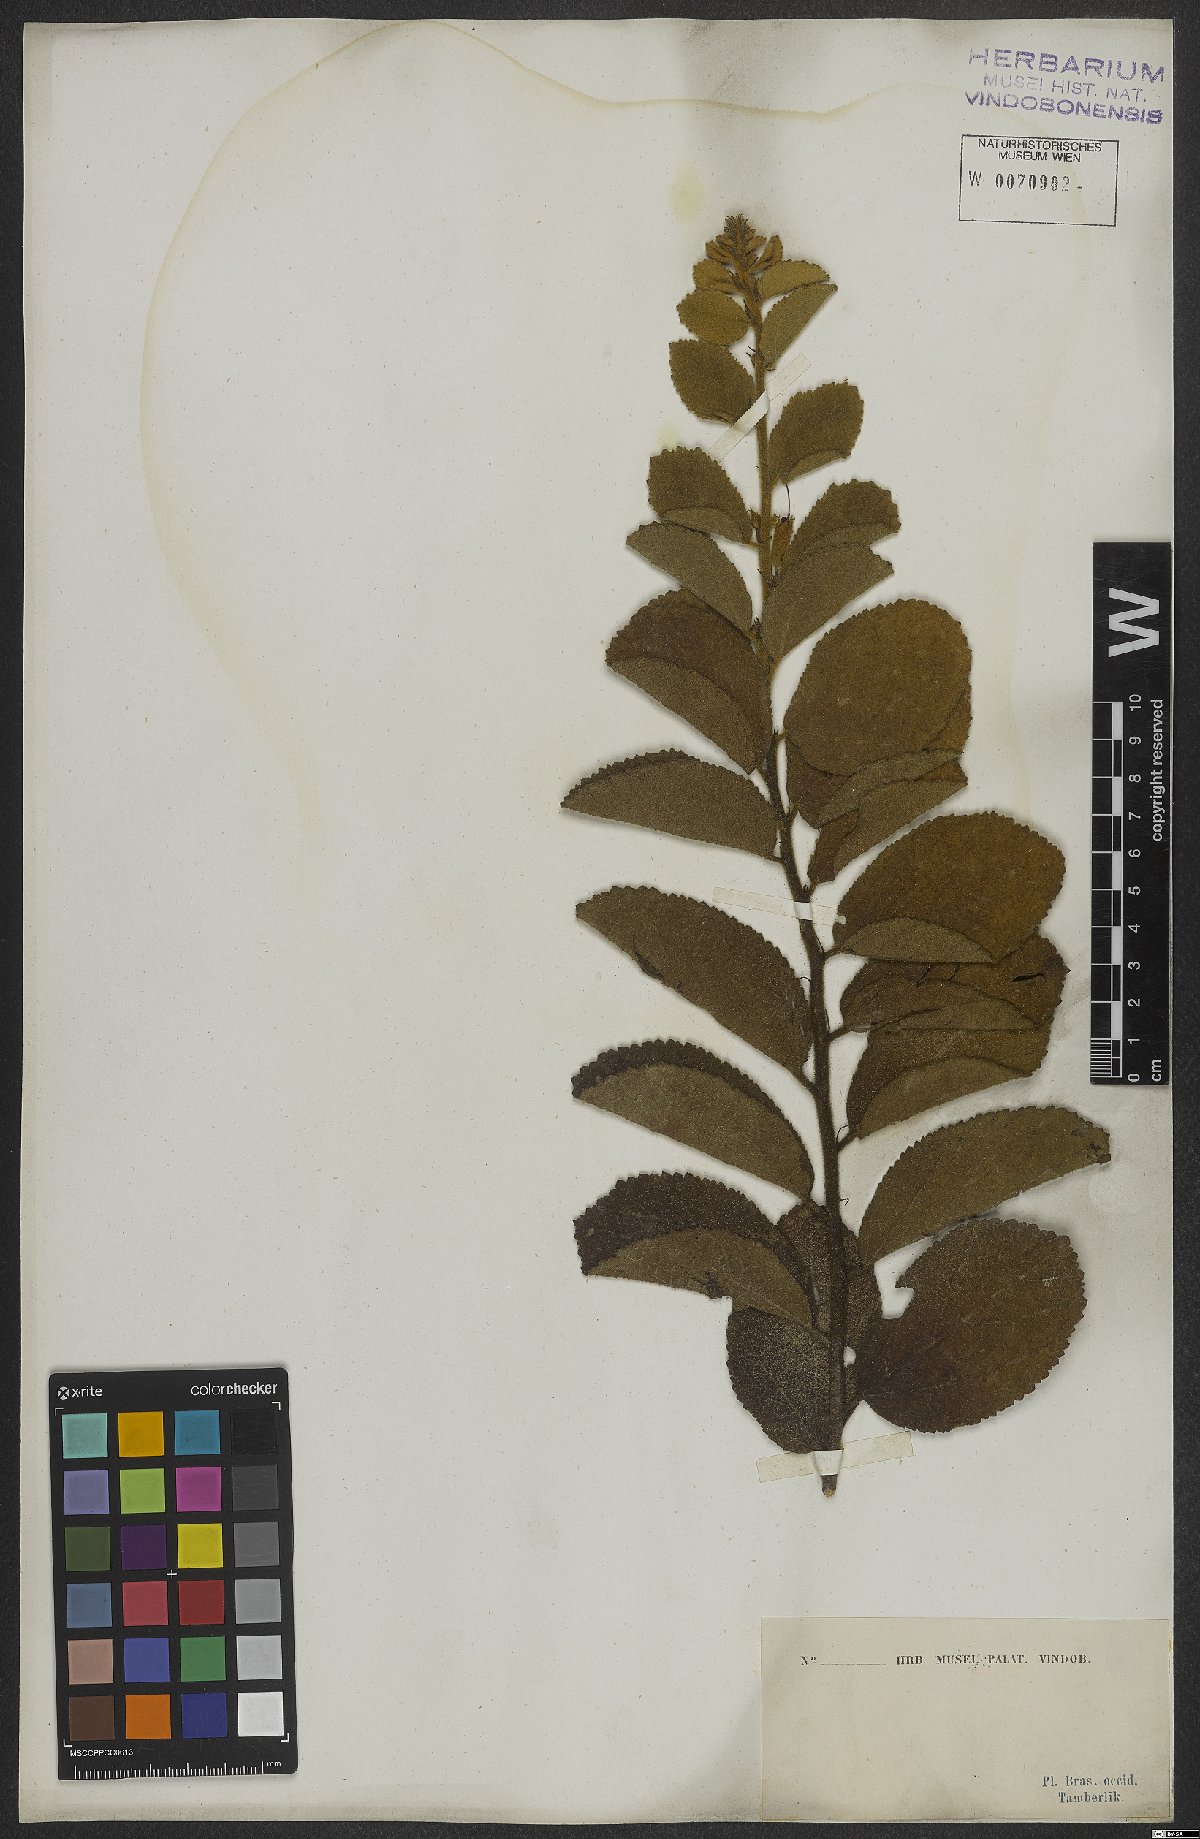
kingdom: Plantae
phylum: Tracheophyta
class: Magnoliopsida
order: Malvales
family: Malvaceae
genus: Helicteres
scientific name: Helicteres sacarolha
